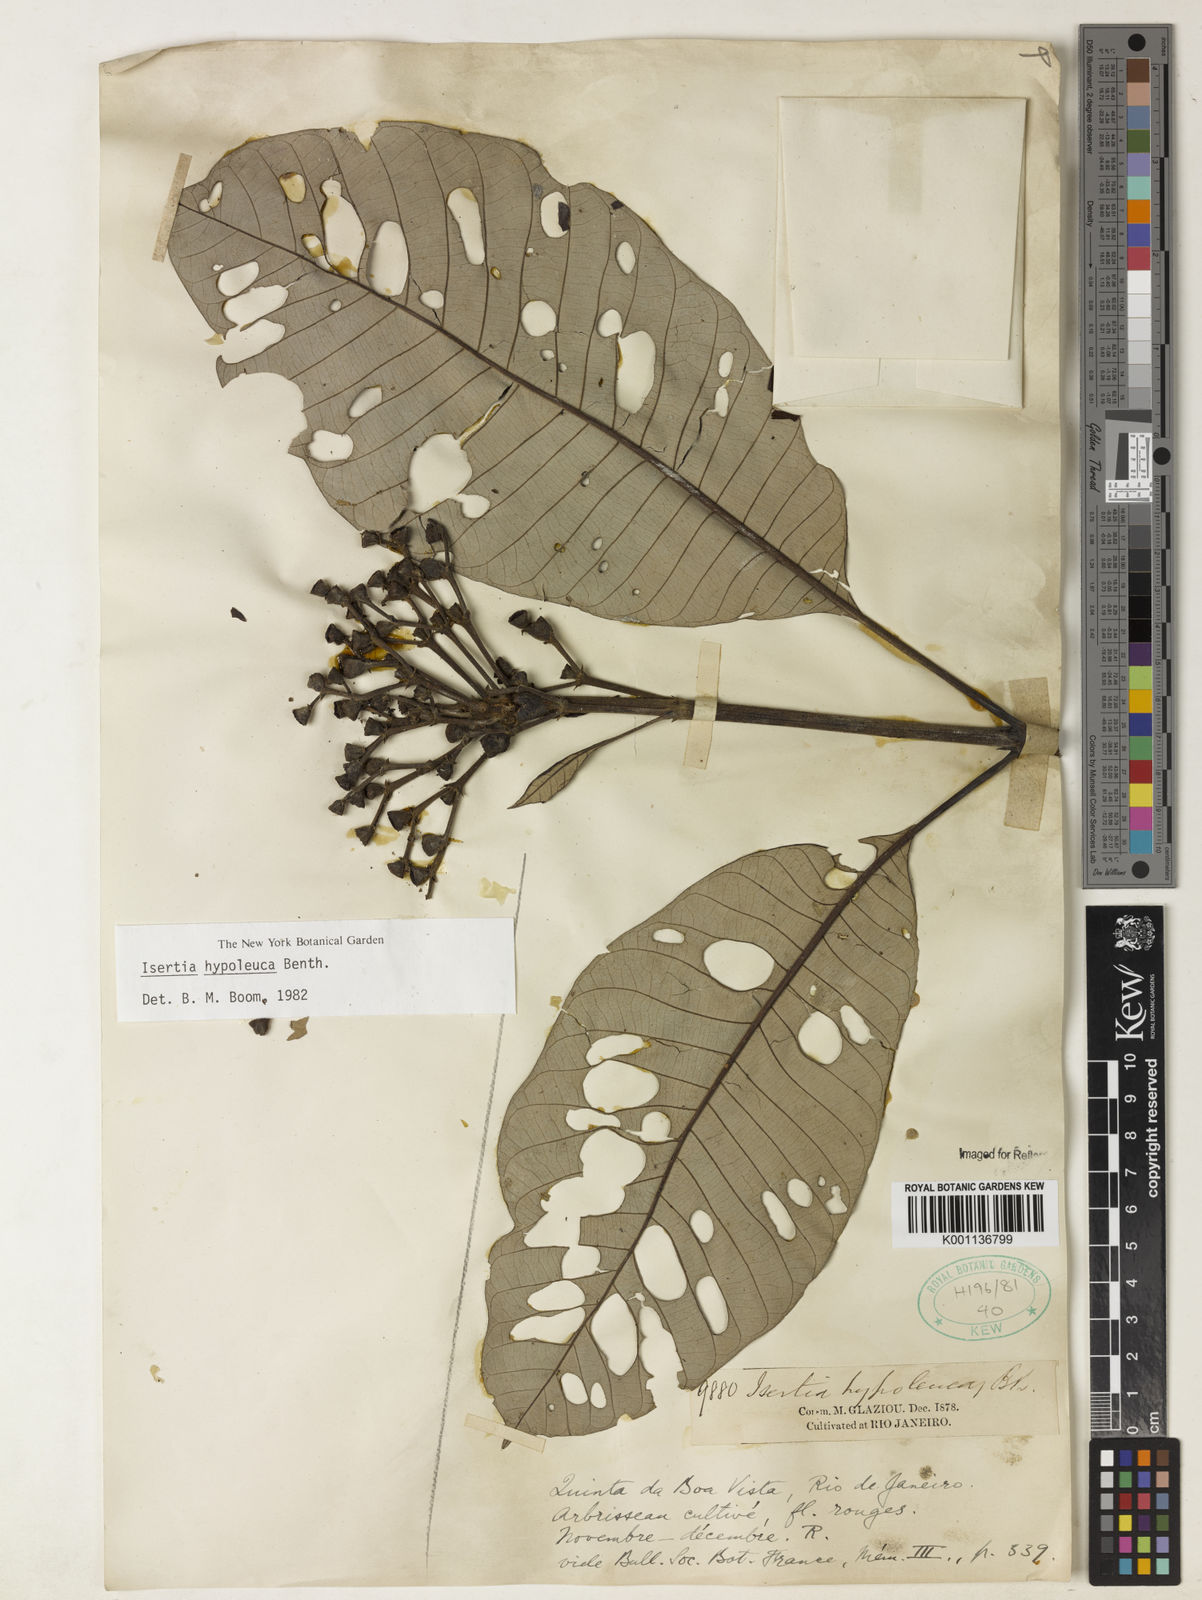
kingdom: Plantae
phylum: Tracheophyta
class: Magnoliopsida
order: Gentianales
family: Rubiaceae
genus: Isertia
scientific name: Isertia hypoleuca
